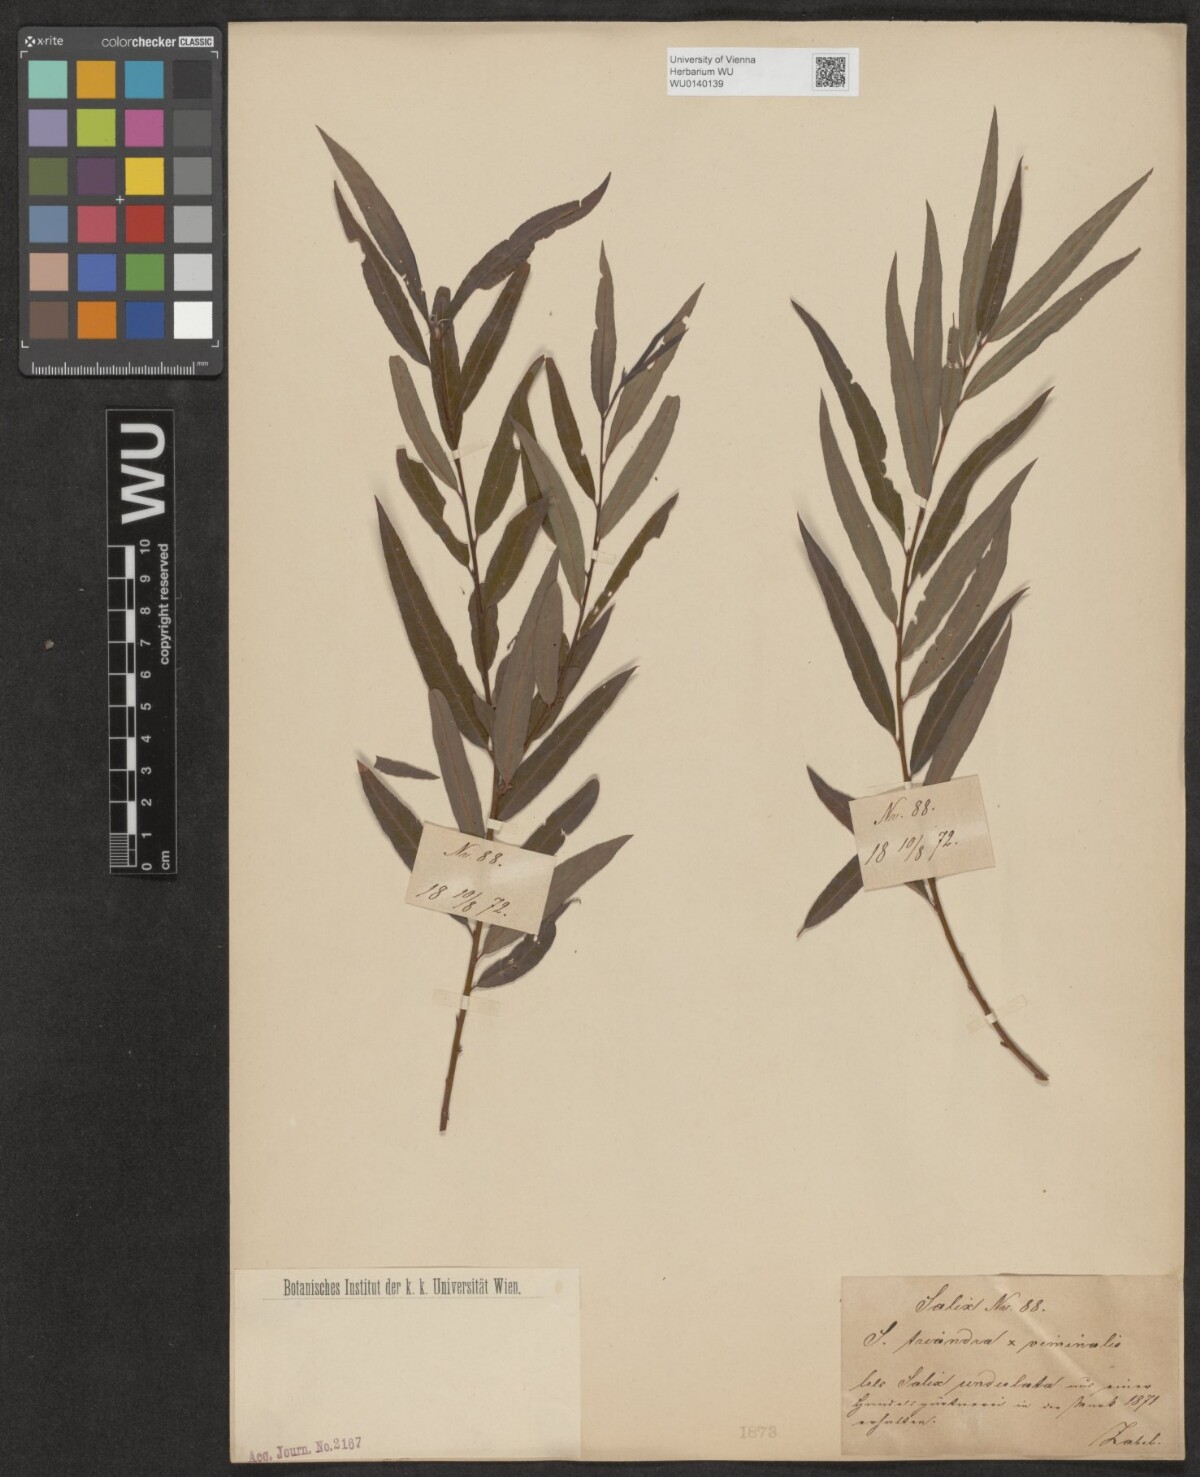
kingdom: Plantae
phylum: Tracheophyta
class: Magnoliopsida
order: Malpighiales
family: Salicaceae
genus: Salix
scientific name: Salix mollissima
